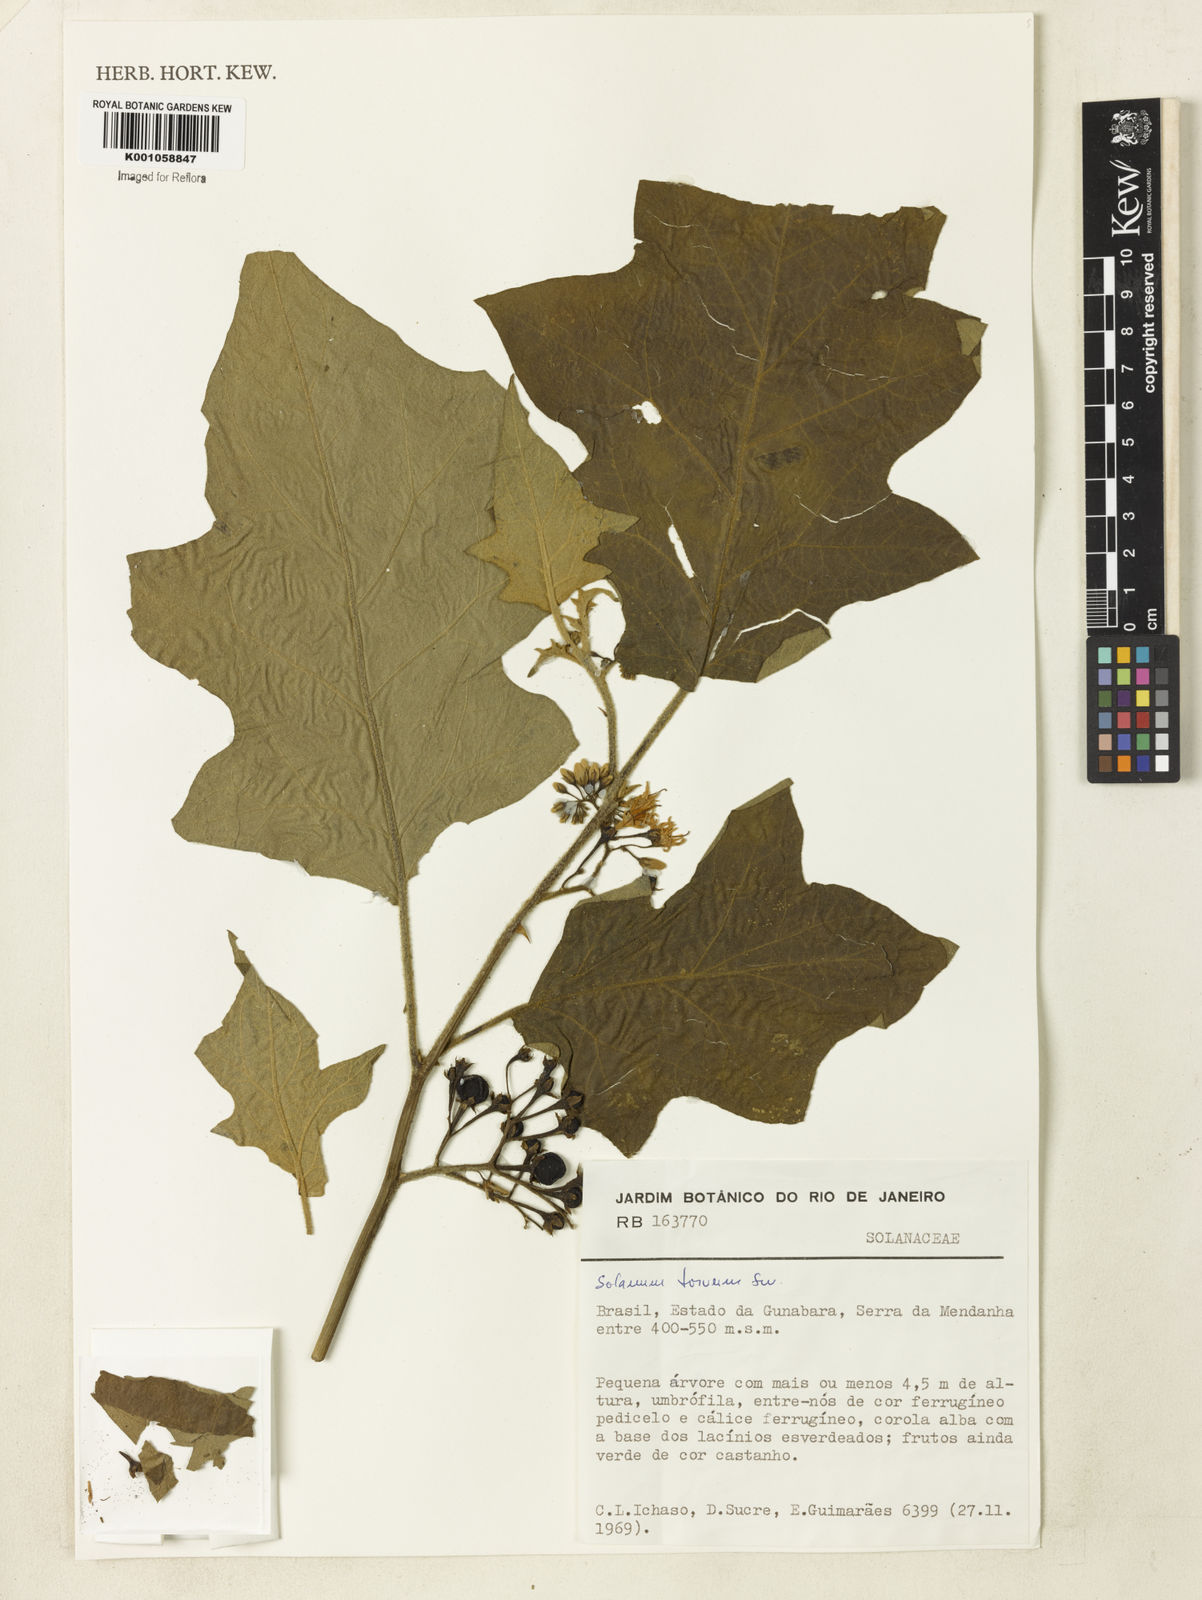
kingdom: Plantae
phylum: Tracheophyta
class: Magnoliopsida
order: Solanales
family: Solanaceae
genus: Solanum
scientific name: Solanum torvum
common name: Turkey berry
